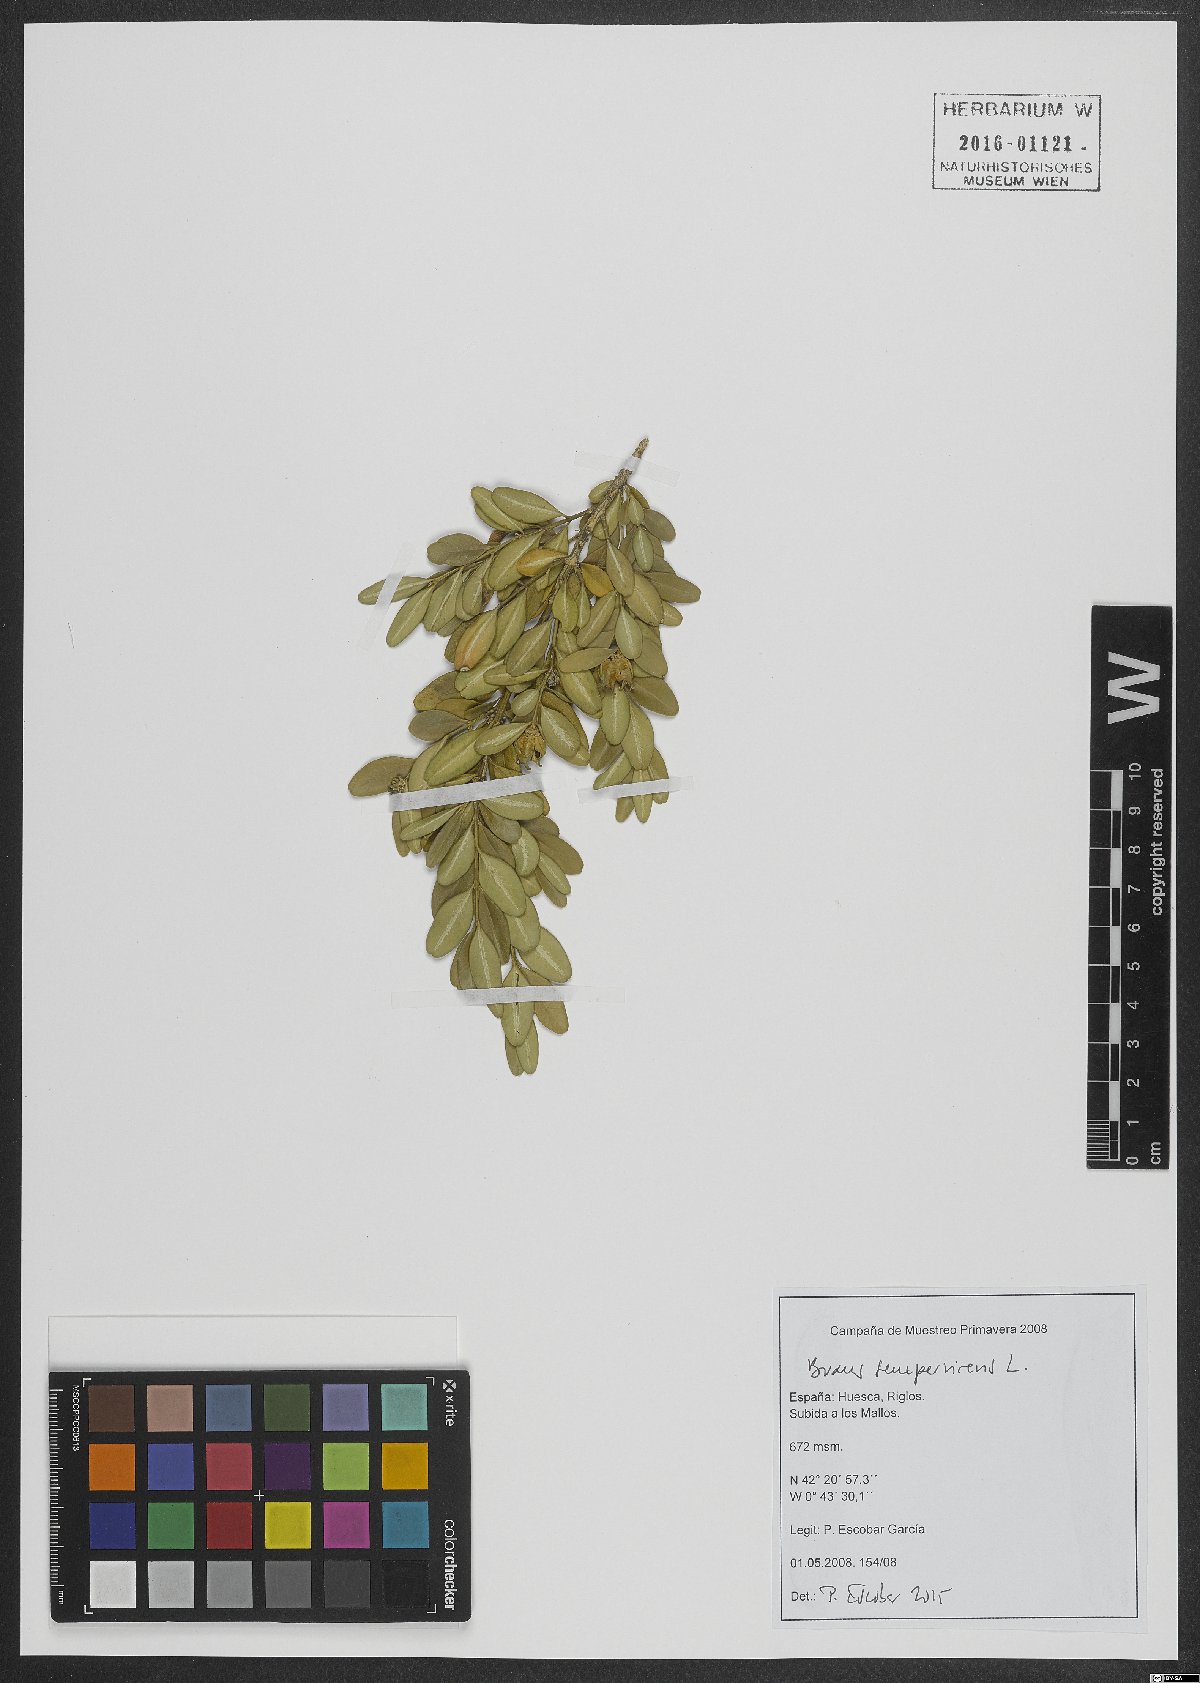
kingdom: Plantae
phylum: Tracheophyta
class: Magnoliopsida
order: Buxales
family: Buxaceae
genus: Buxus
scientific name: Buxus sempervirens
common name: Box
